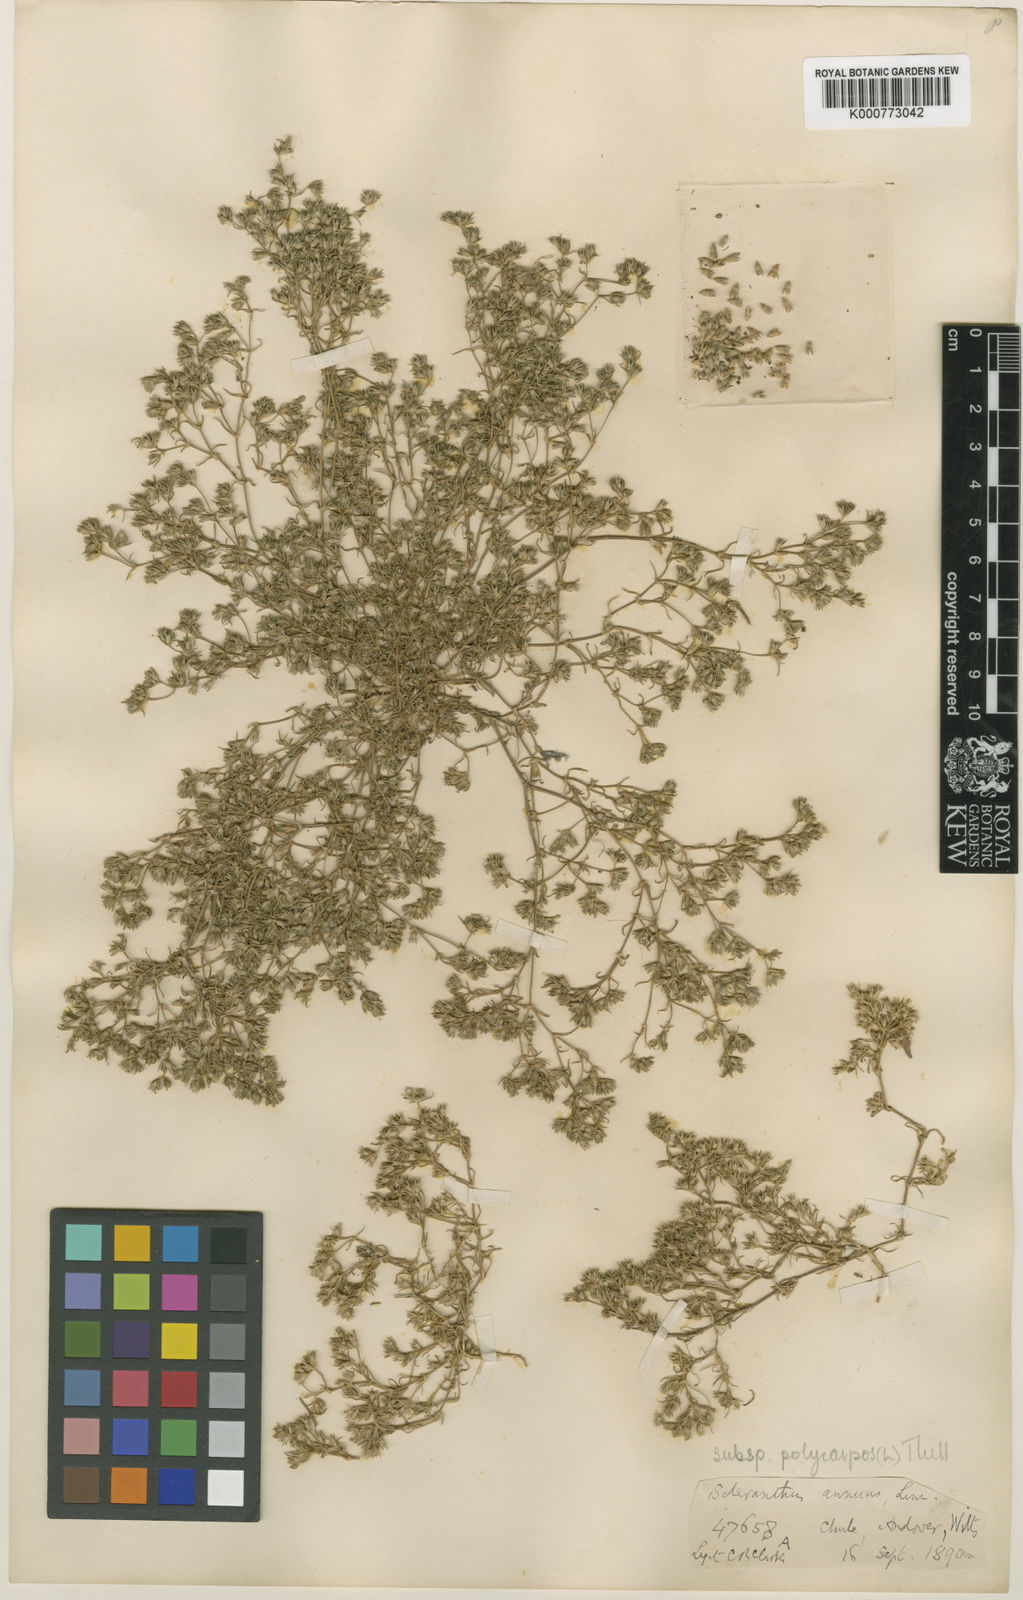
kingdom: Plantae
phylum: Tracheophyta
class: Magnoliopsida
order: Caryophyllales
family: Caryophyllaceae
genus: Scleranthus
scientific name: Scleranthus annuus
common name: Annual knawel
